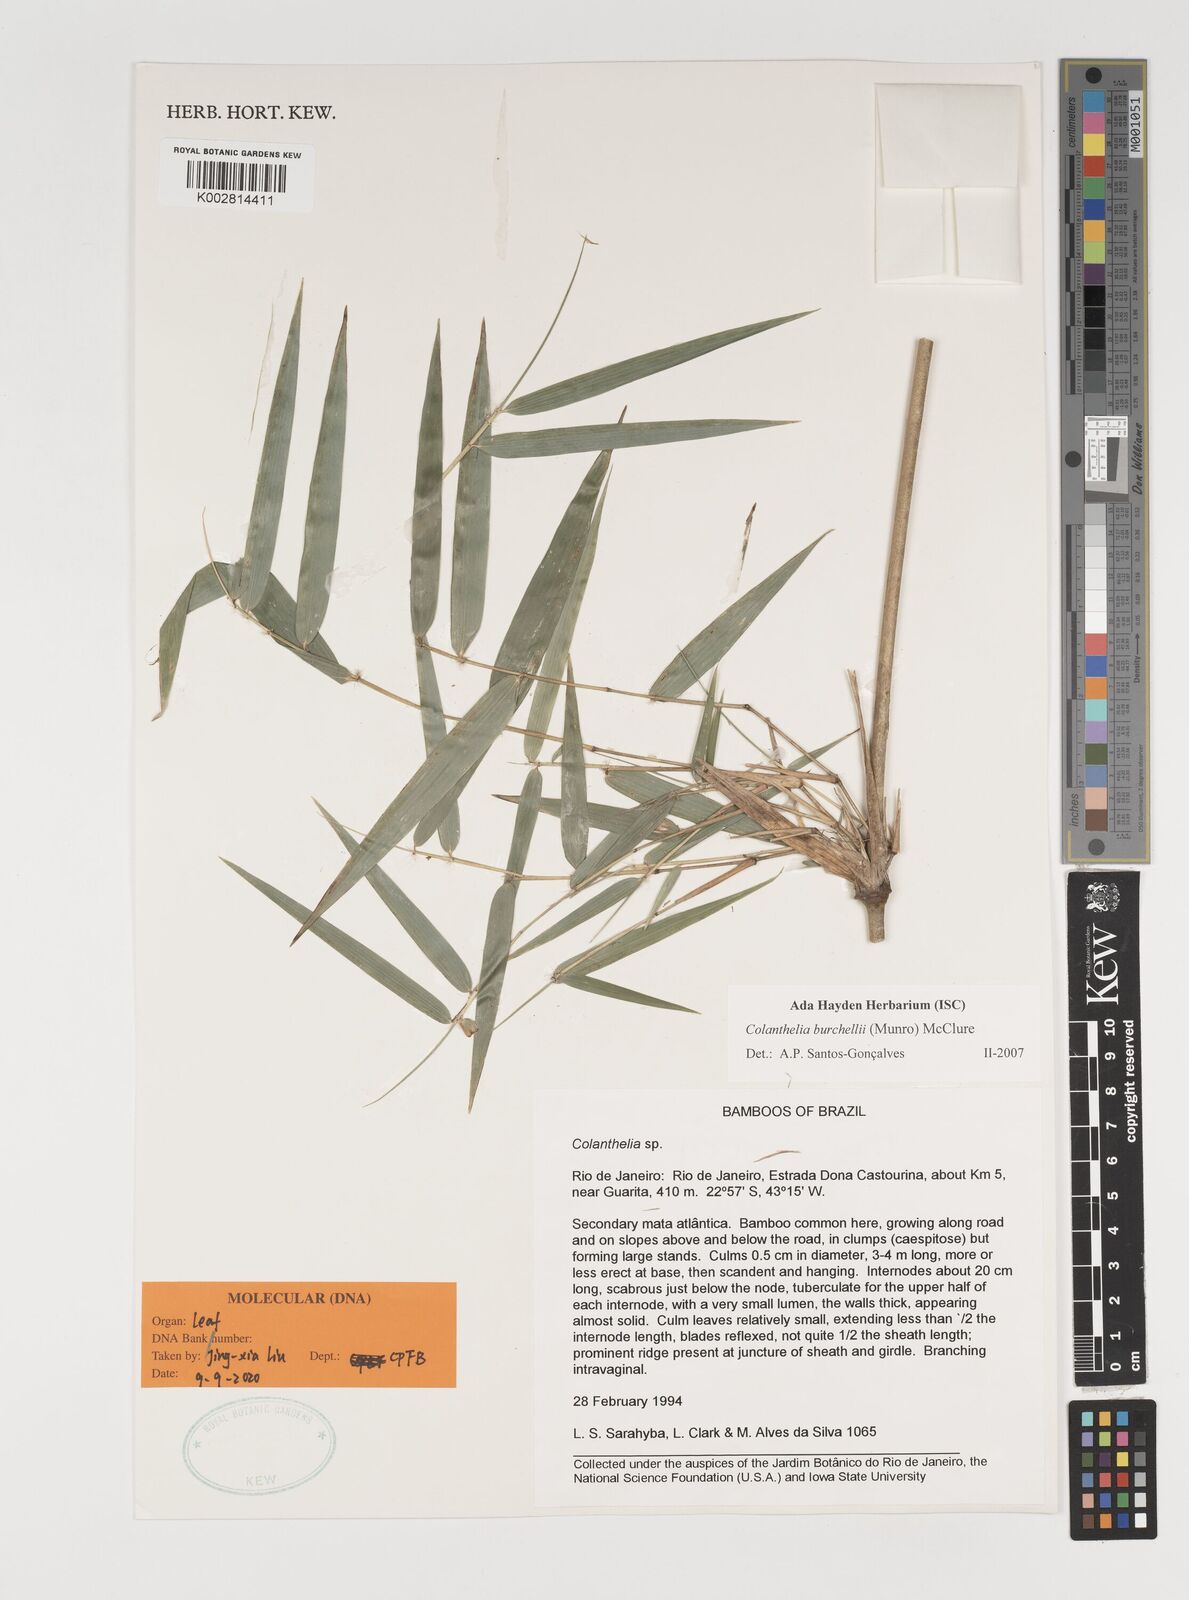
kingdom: Plantae
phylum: Tracheophyta
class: Liliopsida
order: Poales
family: Poaceae
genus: Colanthelia
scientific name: Colanthelia burchellii
